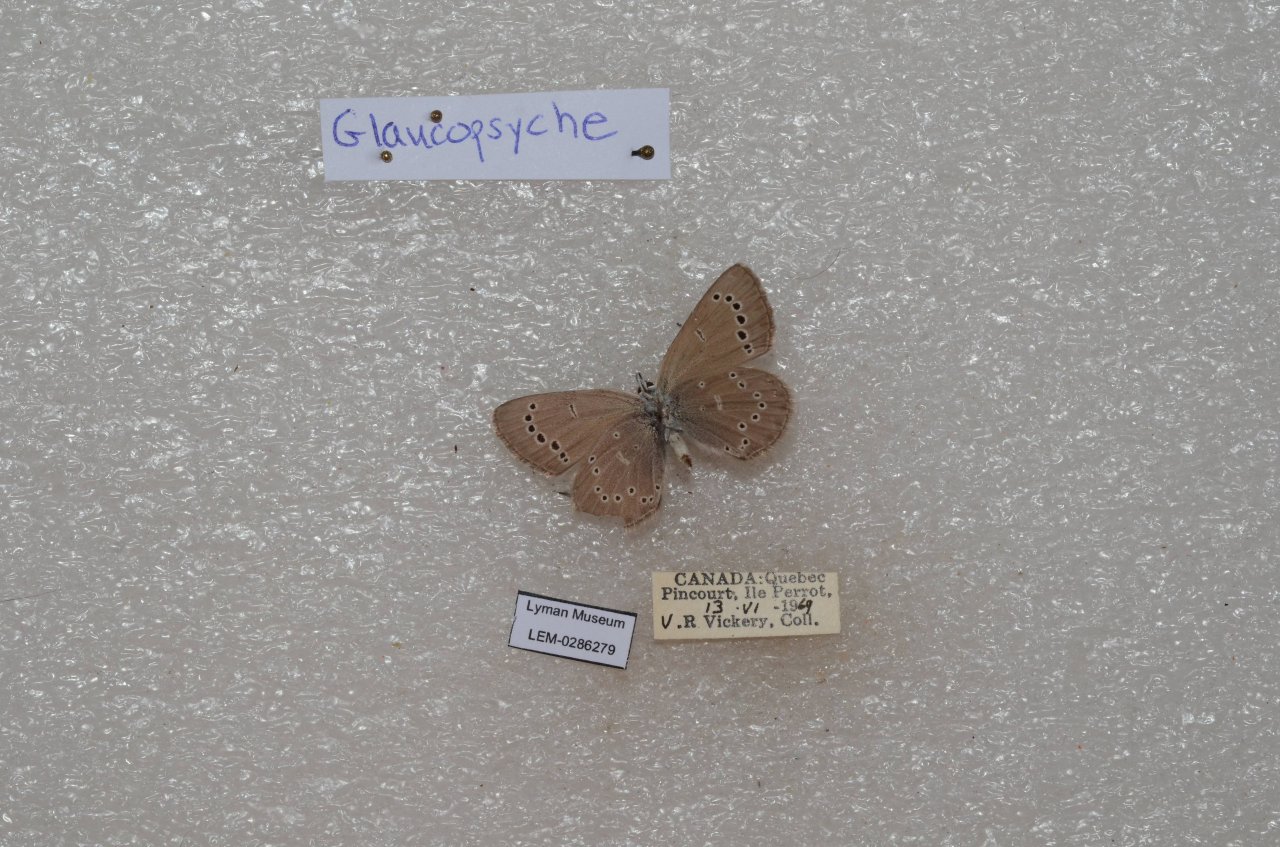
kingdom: Animalia
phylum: Arthropoda
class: Insecta
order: Lepidoptera
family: Lycaenidae
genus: Glaucopsyche
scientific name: Glaucopsyche lygdamus
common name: Silvery Blue
